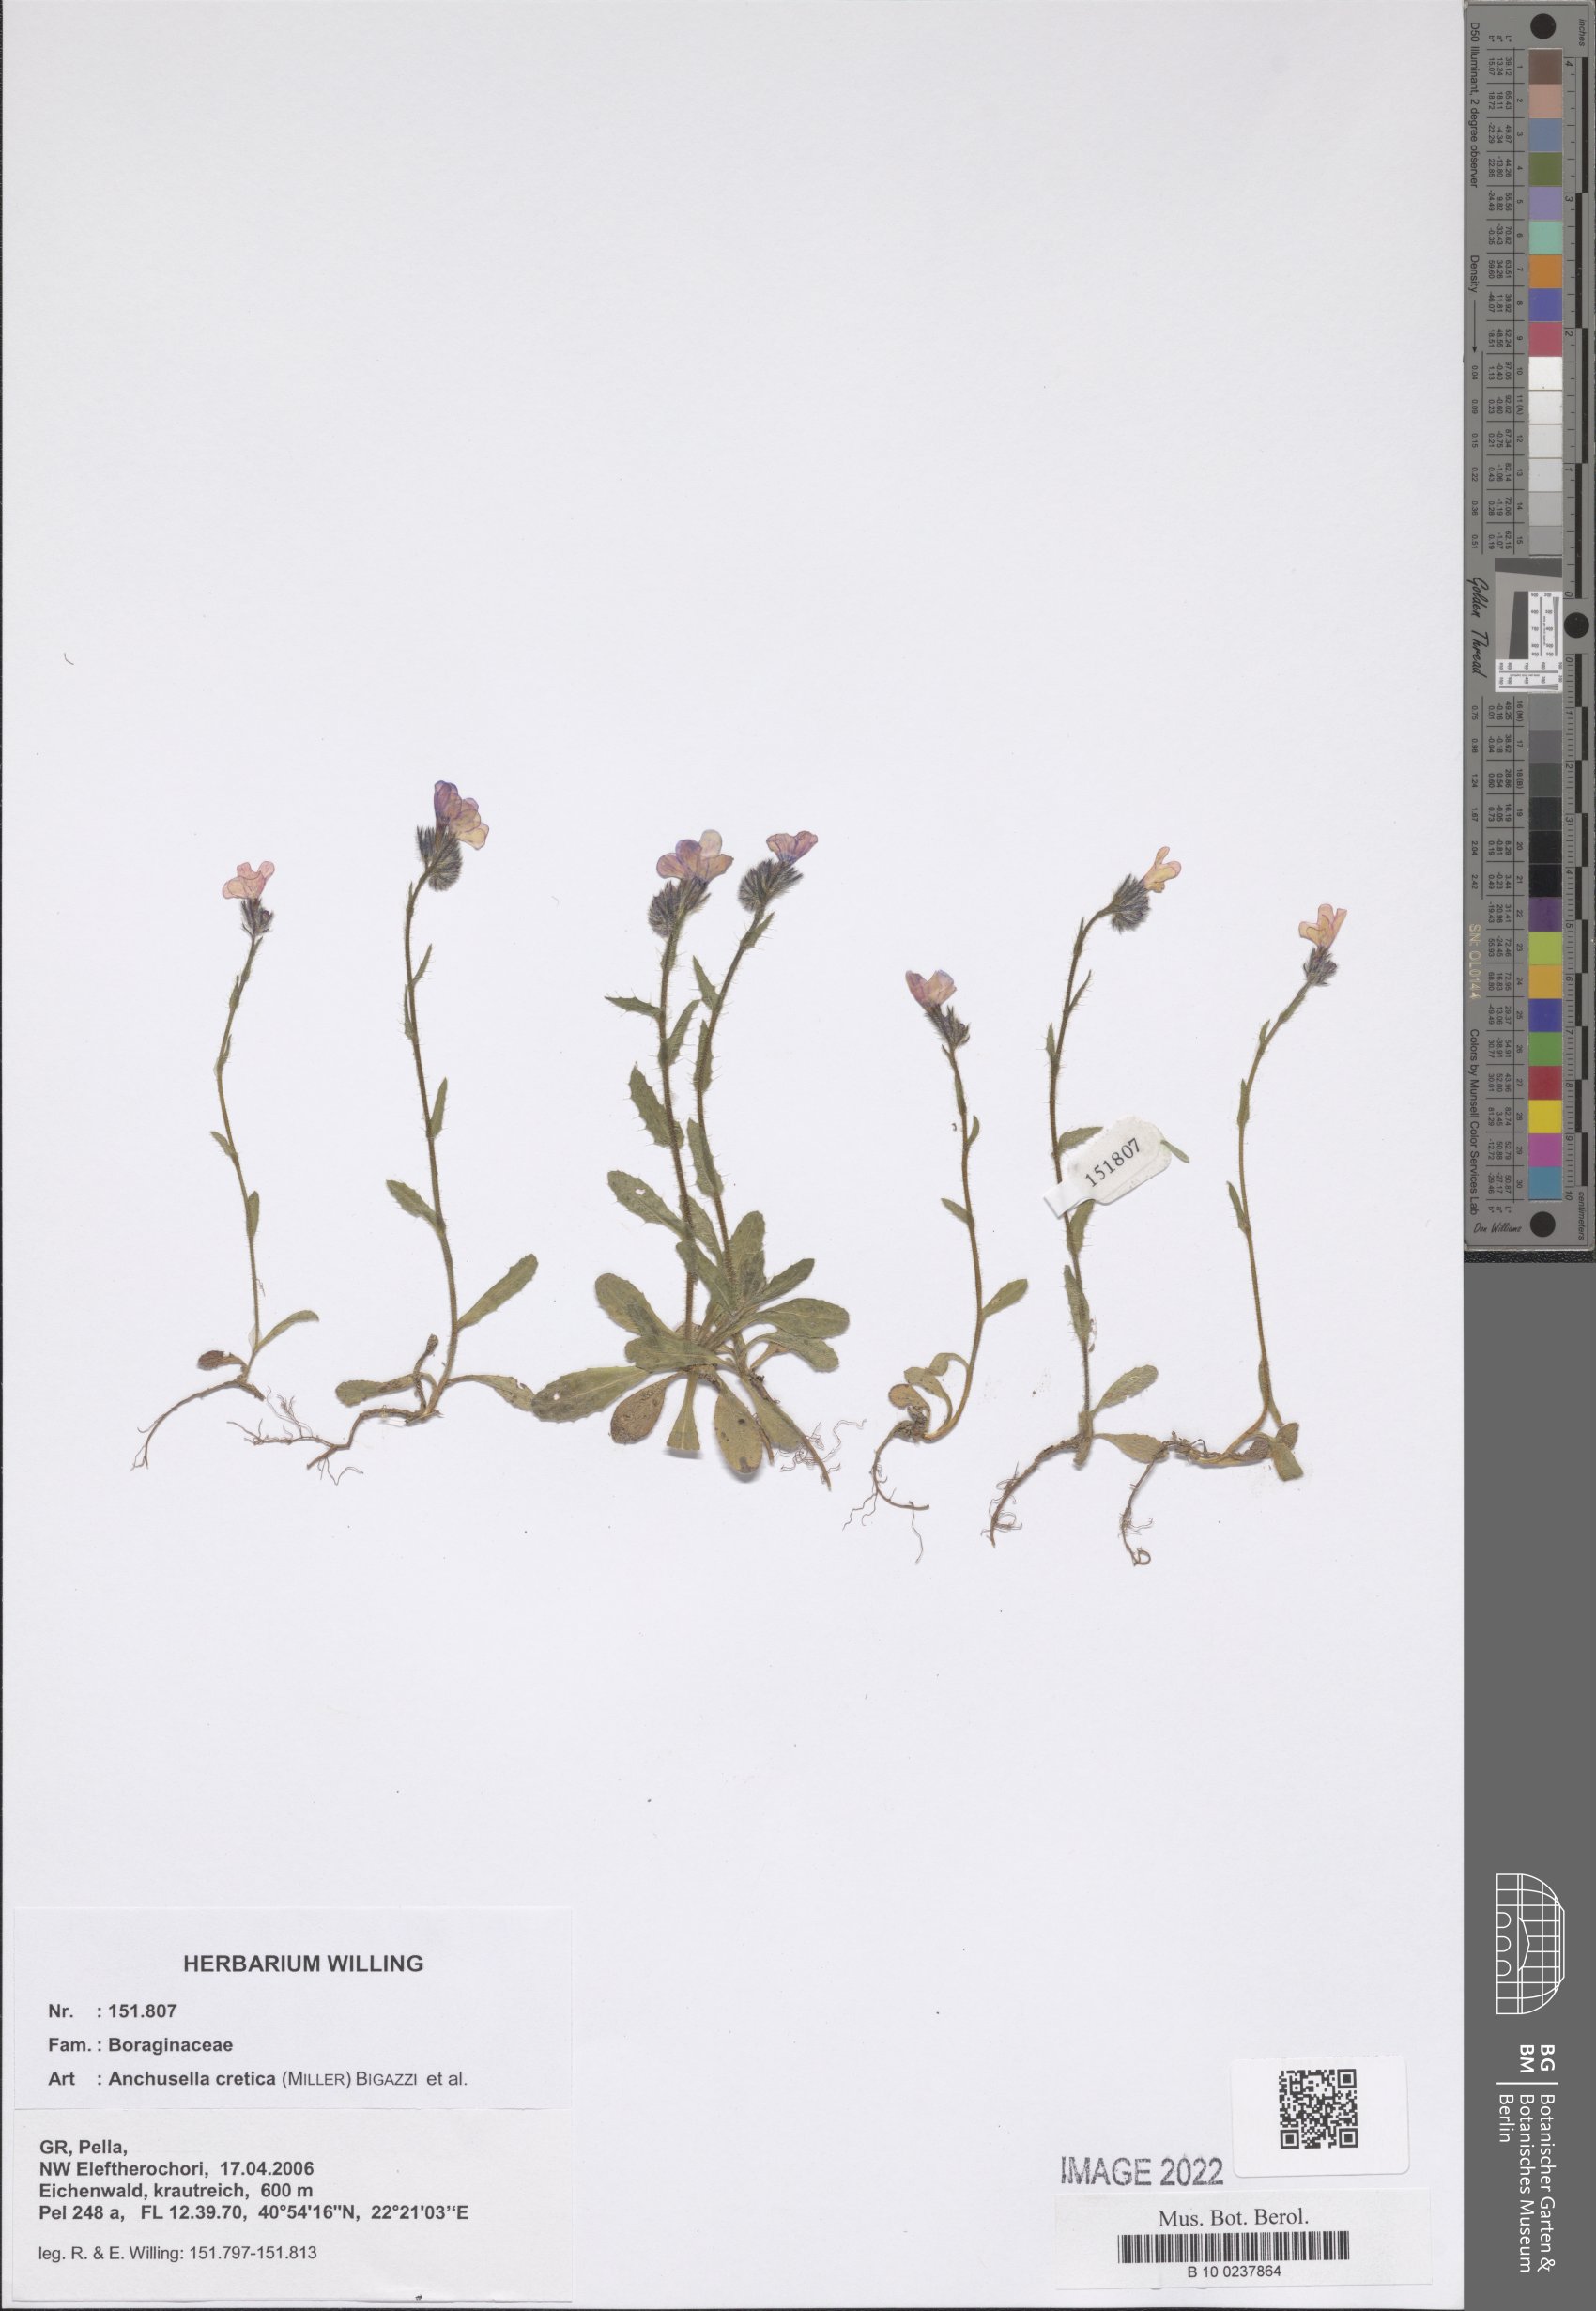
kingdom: Plantae
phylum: Tracheophyta
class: Magnoliopsida
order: Boraginales
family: Boraginaceae
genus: Lycopsis
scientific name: Lycopsis arvensis
